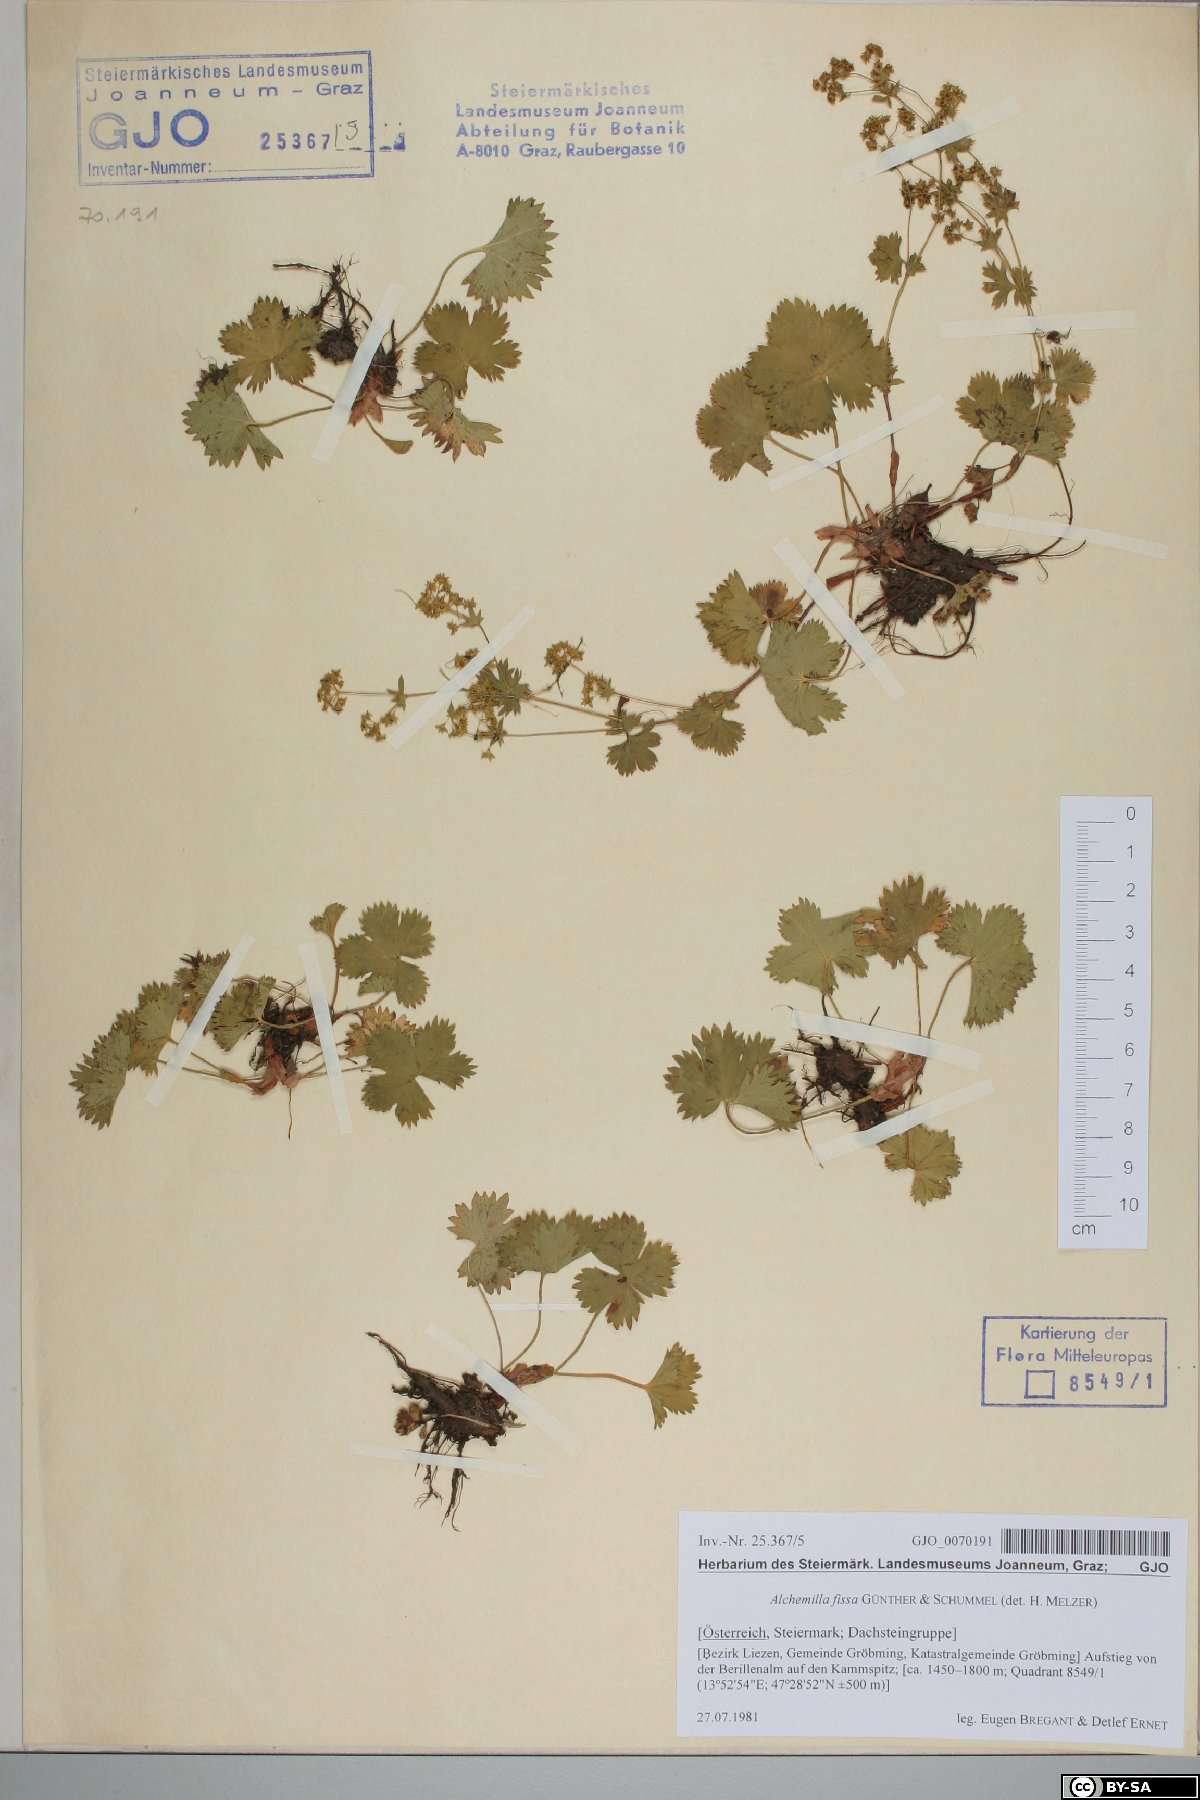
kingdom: Plantae
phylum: Tracheophyta
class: Magnoliopsida
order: Rosales
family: Rosaceae
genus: Alchemilla
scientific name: Alchemilla fissa
